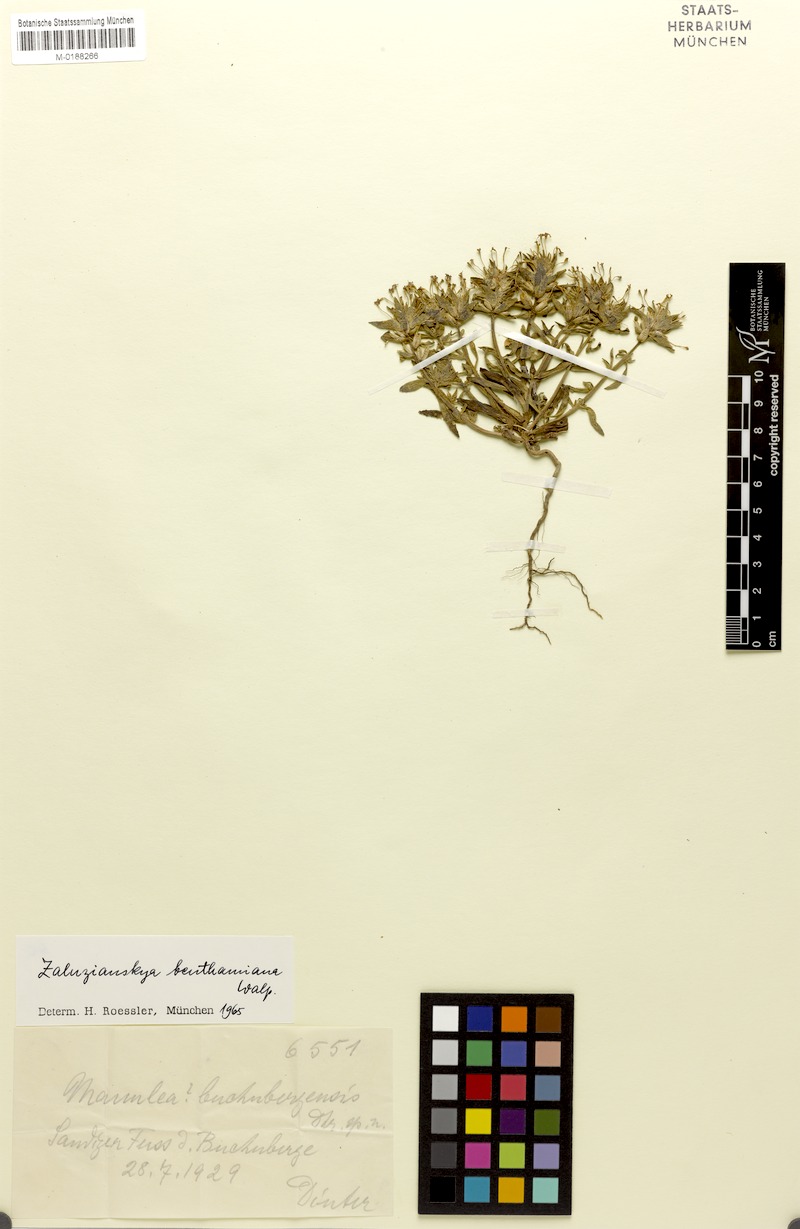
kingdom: Plantae
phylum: Tracheophyta
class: Magnoliopsida
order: Lamiales
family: Scrophulariaceae
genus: Zaluzianskya
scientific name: Zaluzianskya benthamiana
